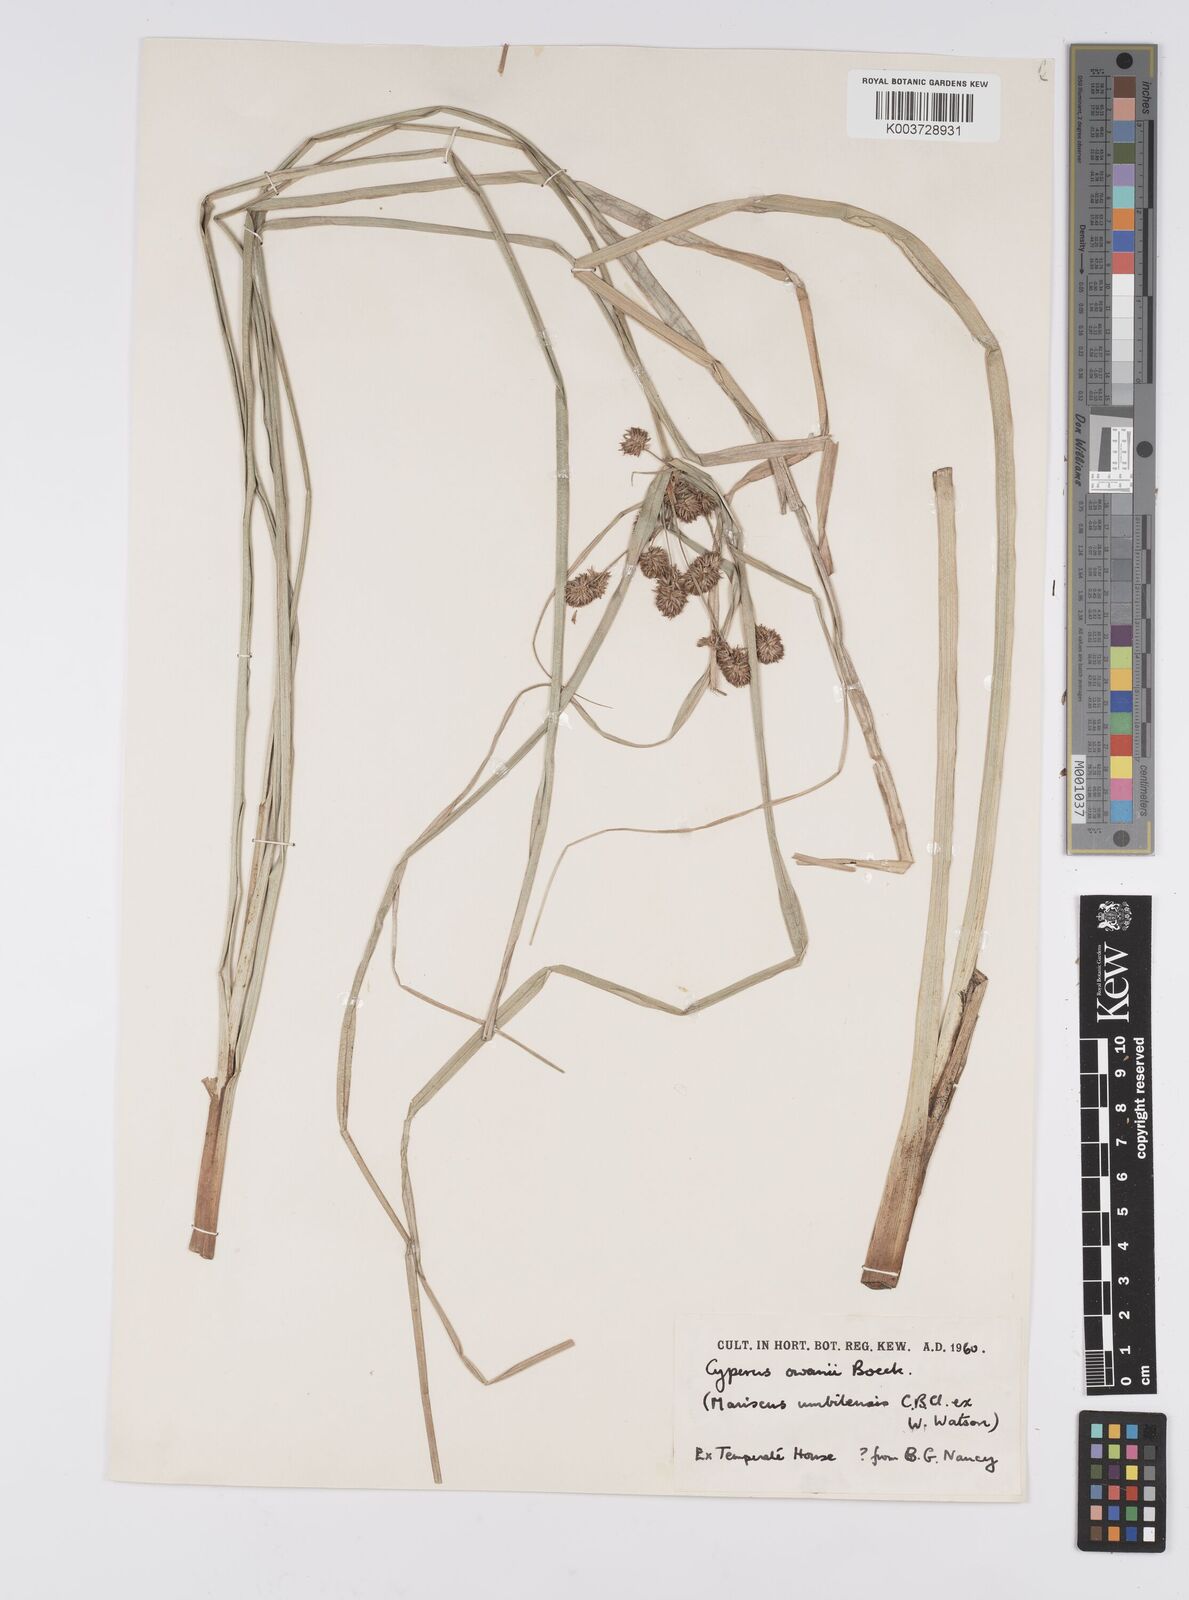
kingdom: Plantae
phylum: Tracheophyta
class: Liliopsida
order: Poales
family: Cyperaceae
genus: Cyperus
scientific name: Cyperus owanii
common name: Owan's flatsedge
